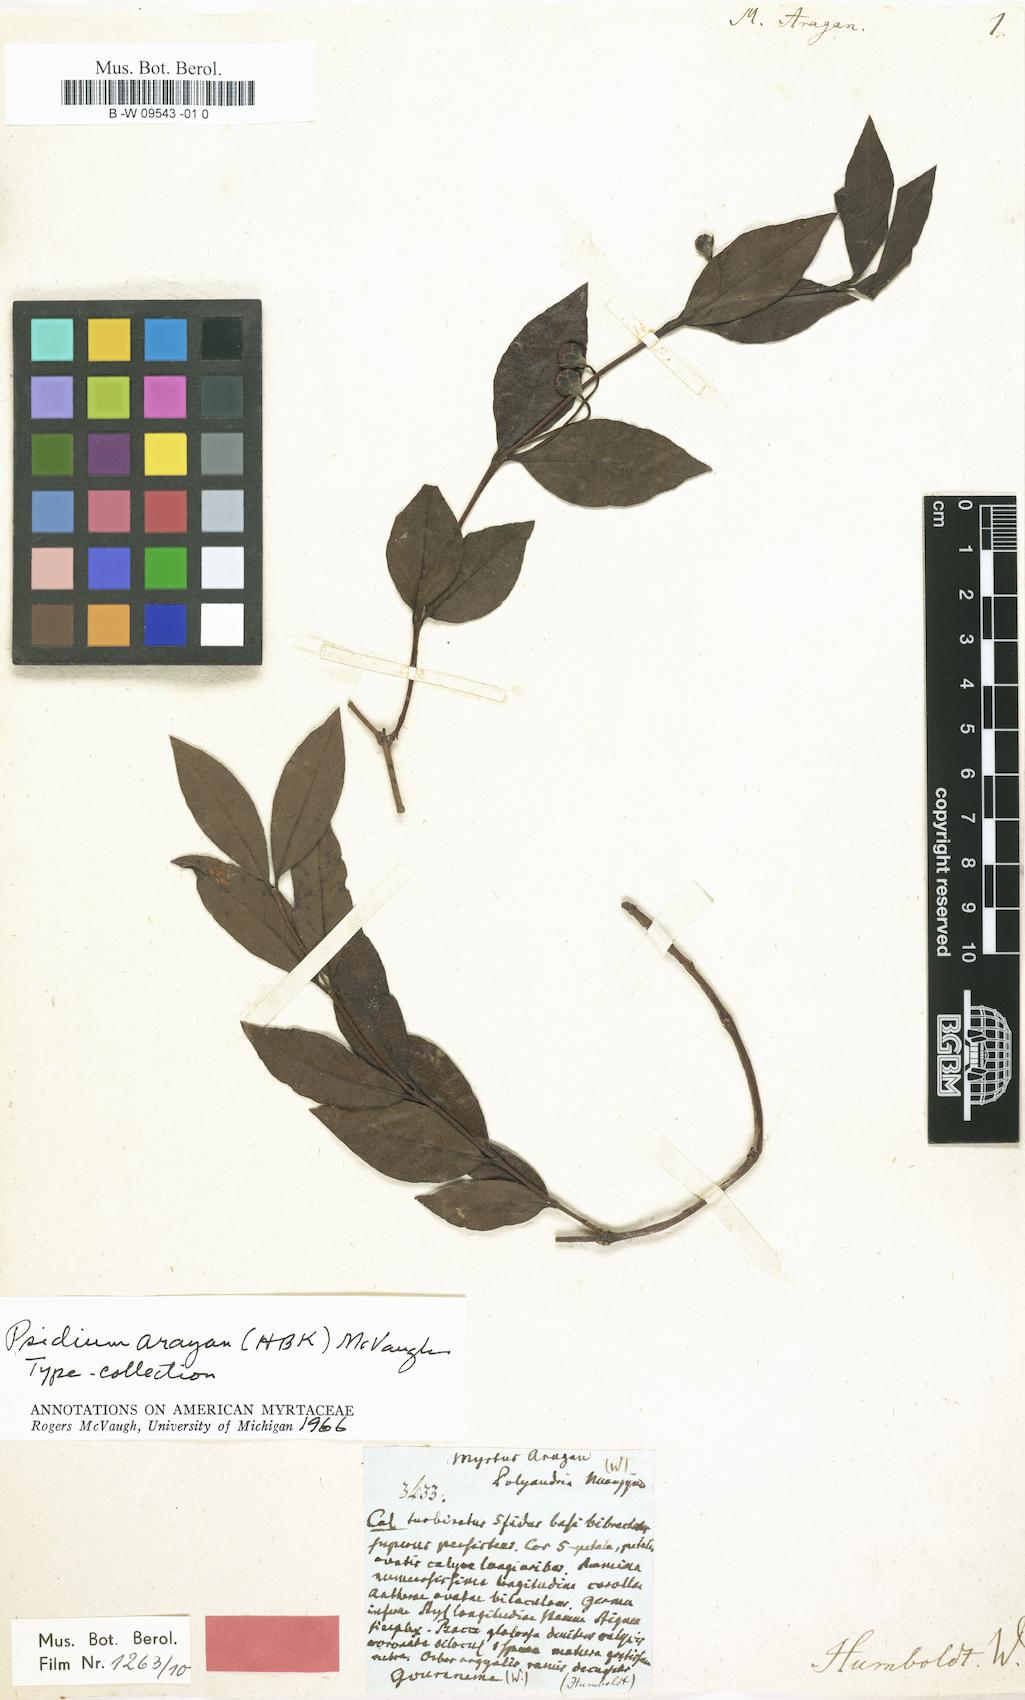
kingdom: Plantae
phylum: Tracheophyta
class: Magnoliopsida
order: Myrtales
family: Myrtaceae
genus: Psidium
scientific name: Psidium salutare
